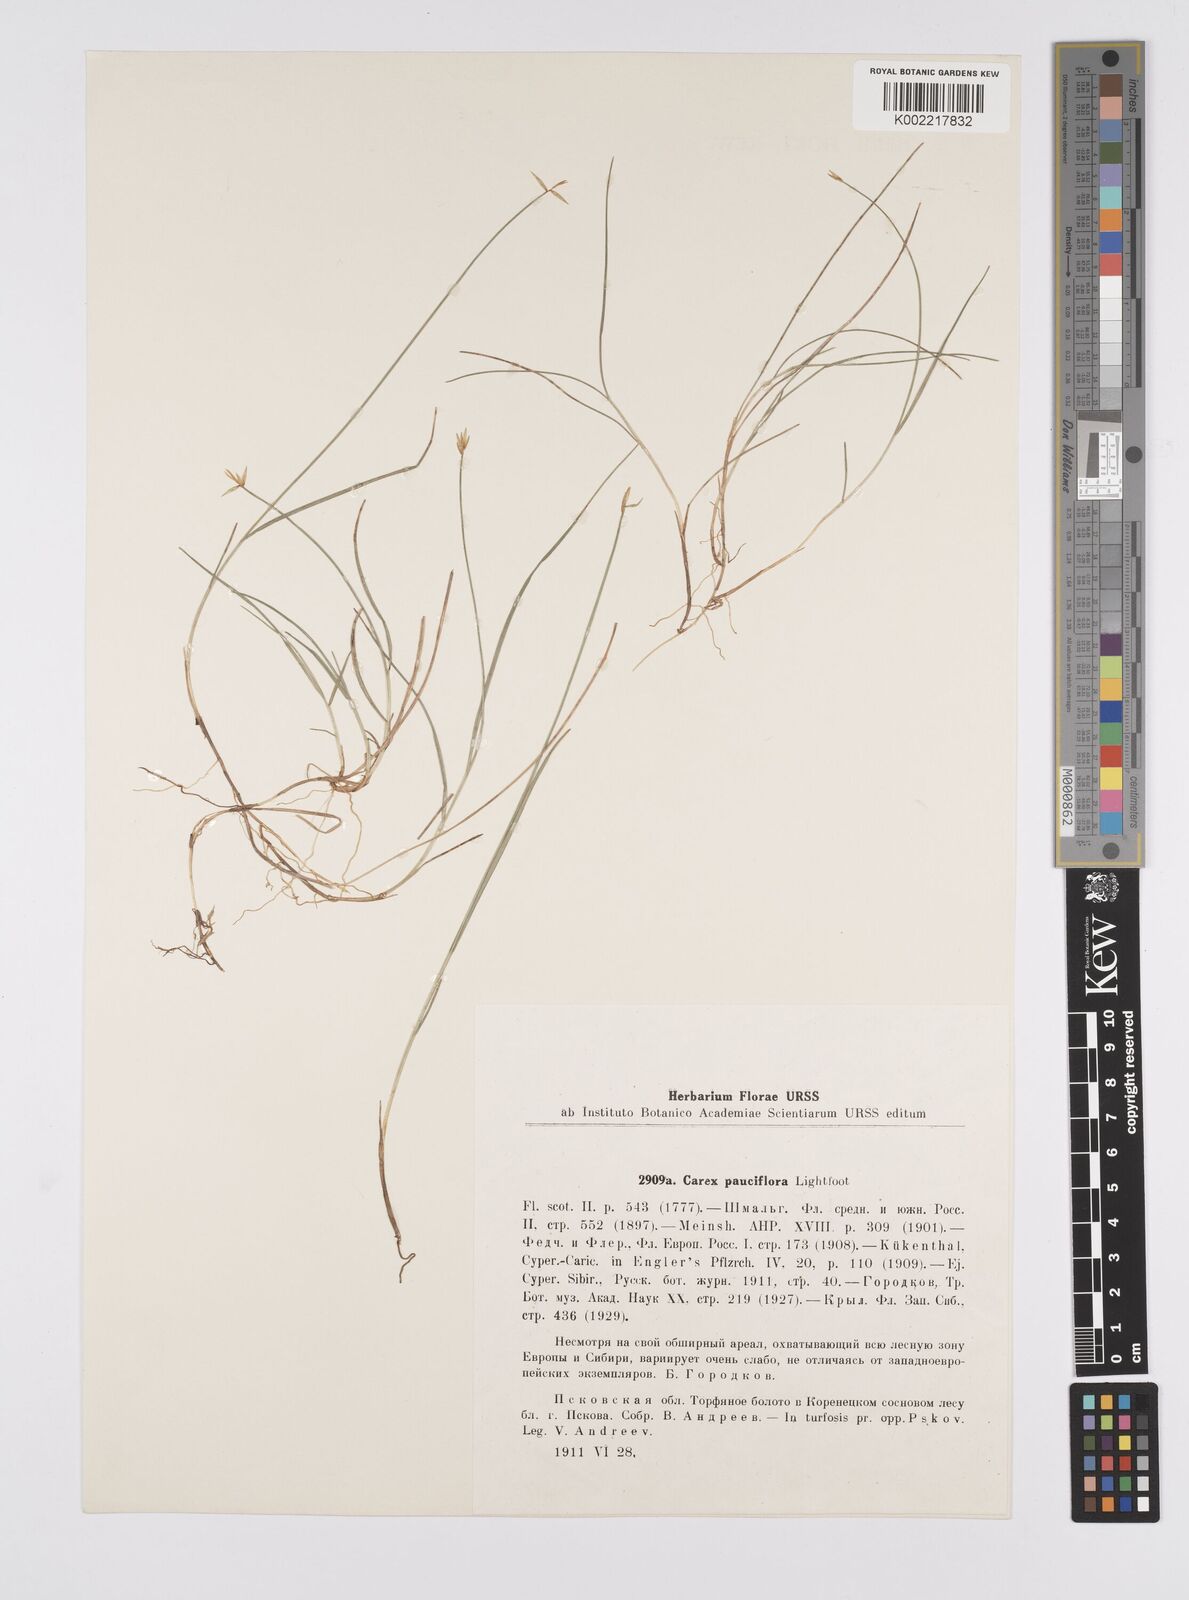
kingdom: Plantae
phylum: Tracheophyta
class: Liliopsida
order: Poales
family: Cyperaceae
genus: Carex
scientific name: Carex pauciflora
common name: Few-flowered sedge
